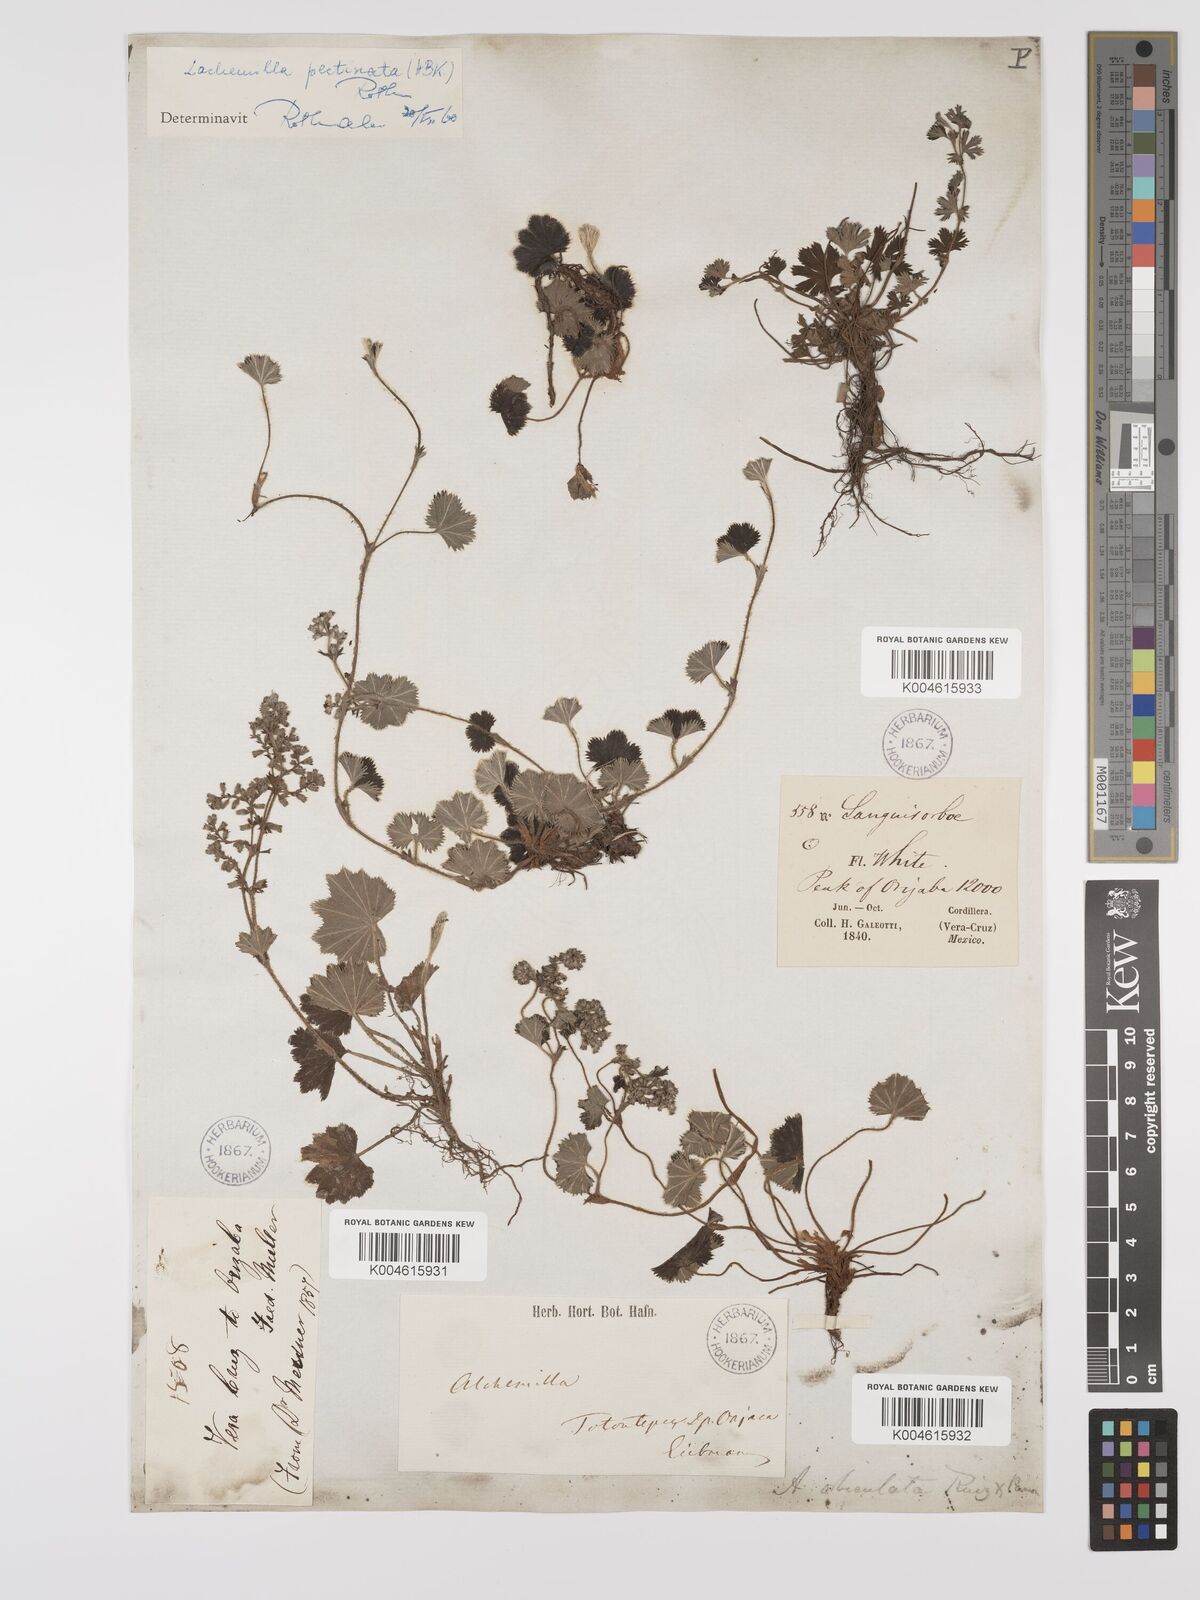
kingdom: Plantae
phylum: Tracheophyta
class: Magnoliopsida
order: Rosales
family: Rosaceae
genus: Lachemilla
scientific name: Lachemilla pectinata
